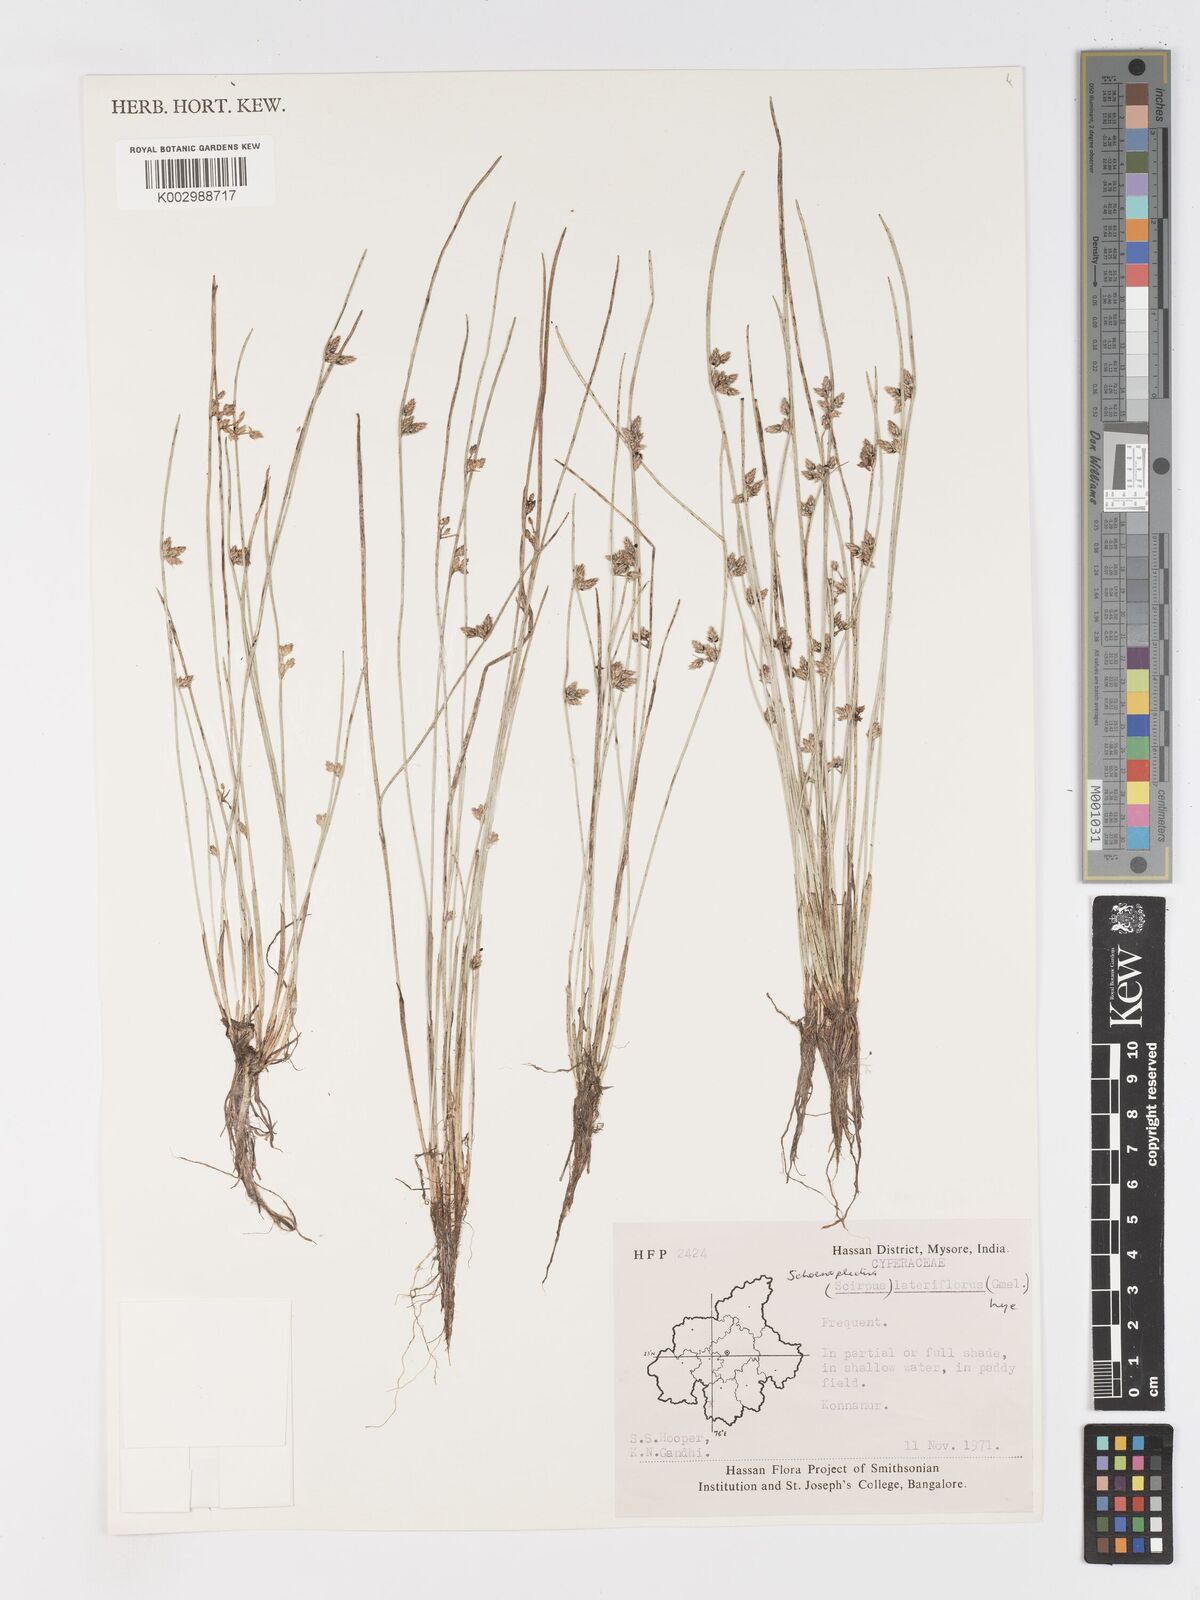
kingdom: Plantae
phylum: Tracheophyta
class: Liliopsida
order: Poales
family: Cyperaceae
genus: Schoenoplectiella
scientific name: Schoenoplectiella lateriflora
